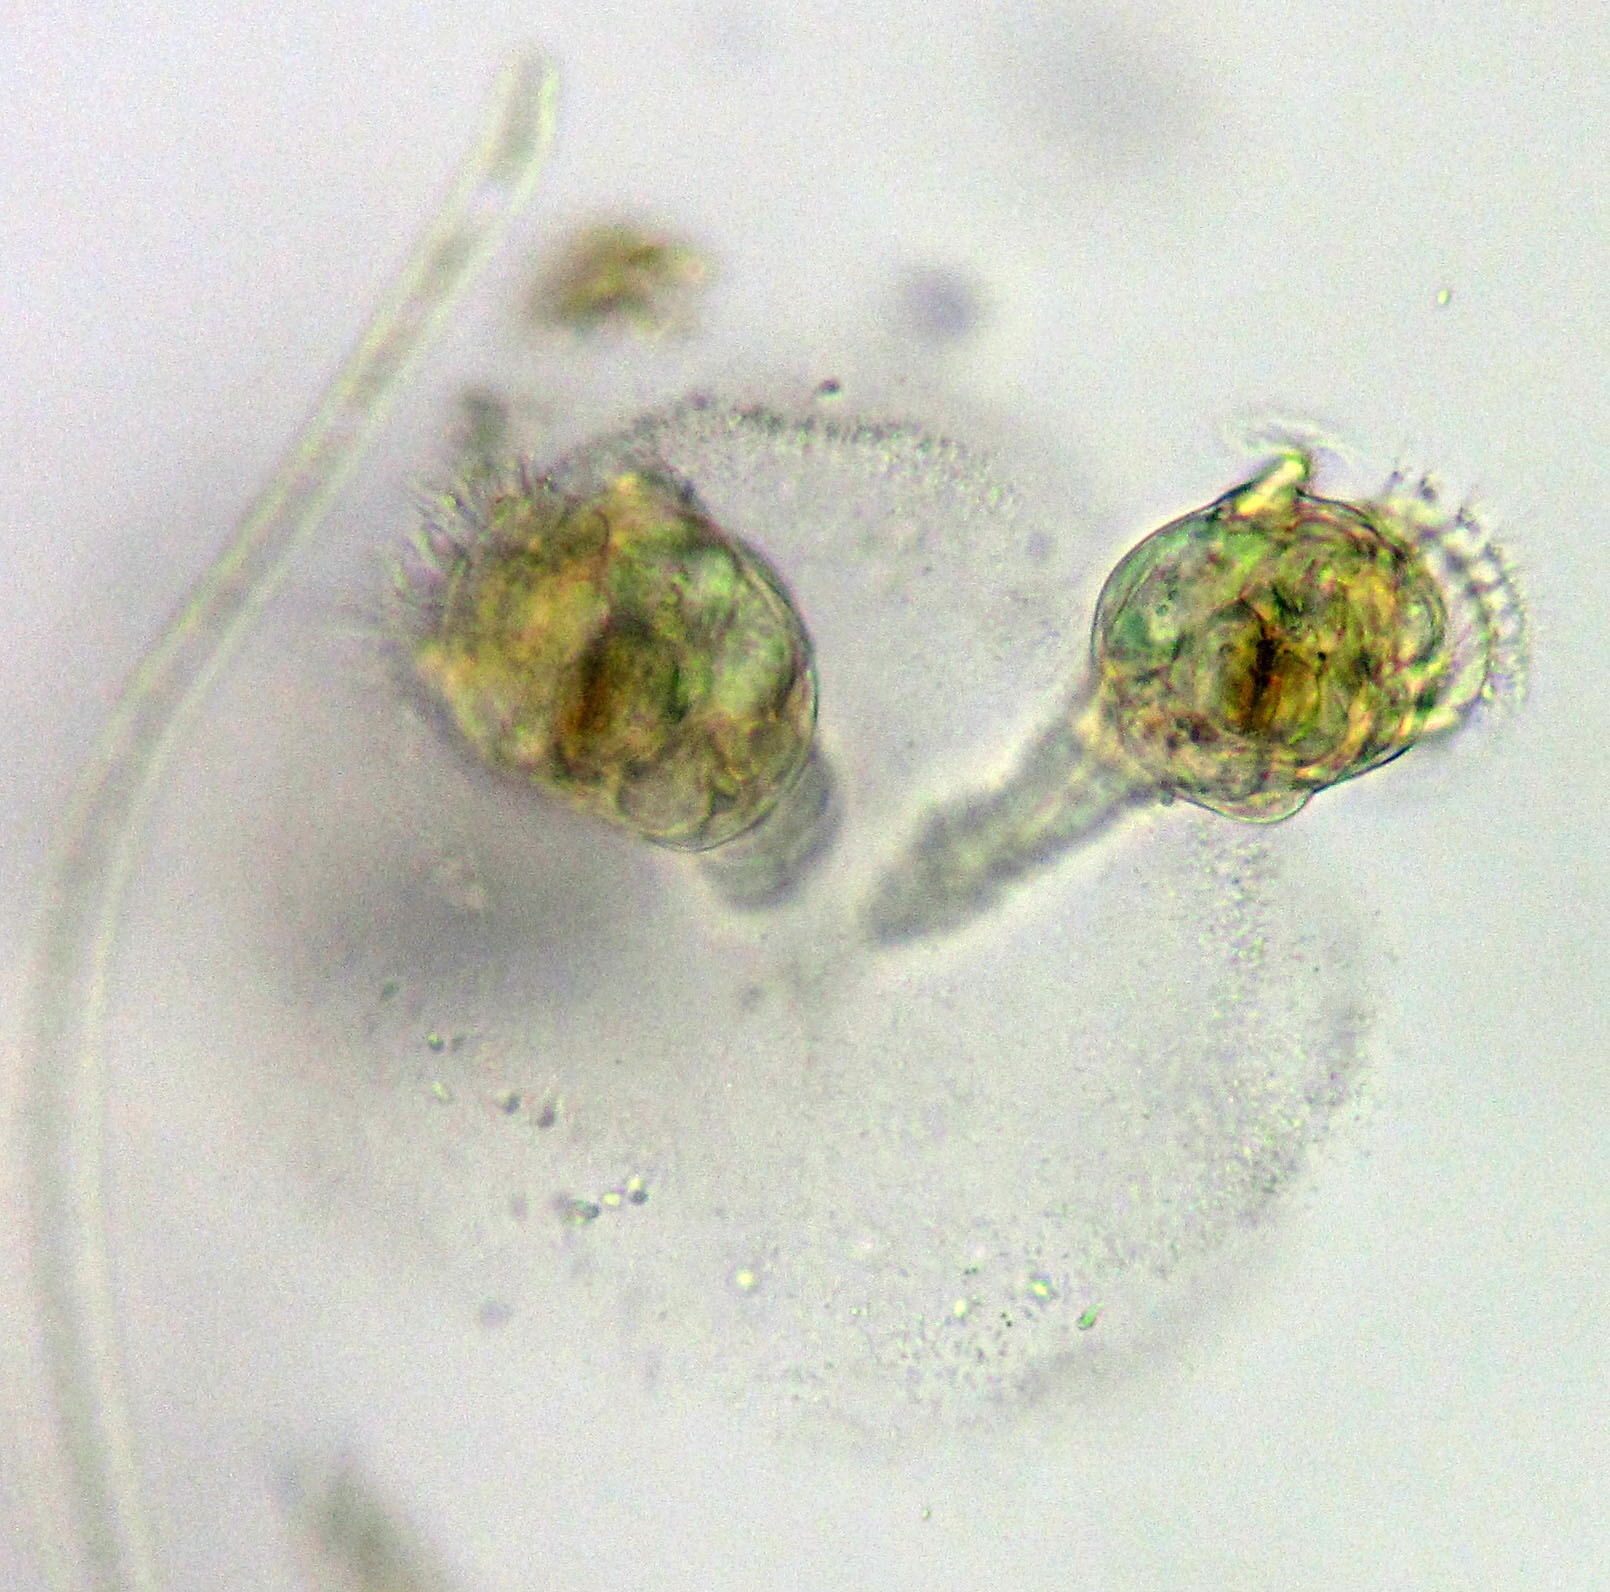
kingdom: Animalia
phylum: Rotifera
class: Eurotatoria
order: Flosculariaceae
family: Conochilidae
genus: Conochilus
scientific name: Conochilus unicornis
